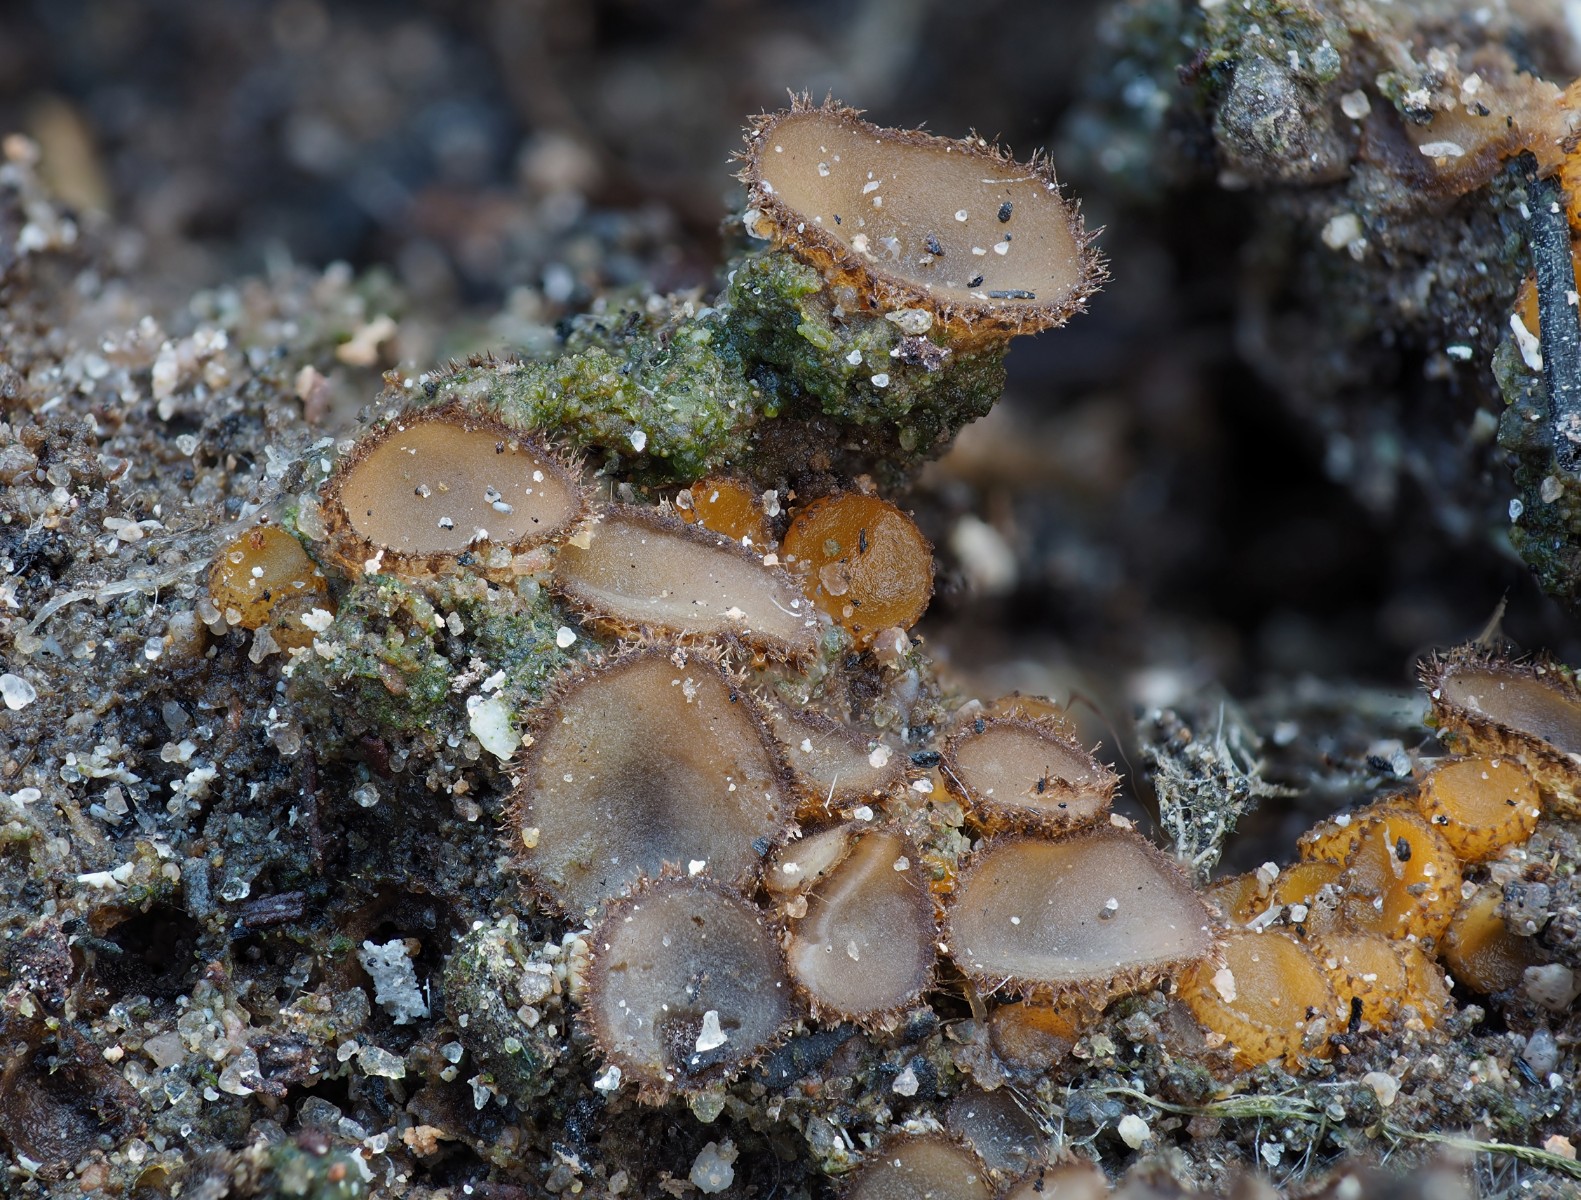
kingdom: Fungi
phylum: Ascomycota
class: Pezizomycetes
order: Pezizales
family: Pyronemataceae
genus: Tricharina
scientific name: Tricharina
